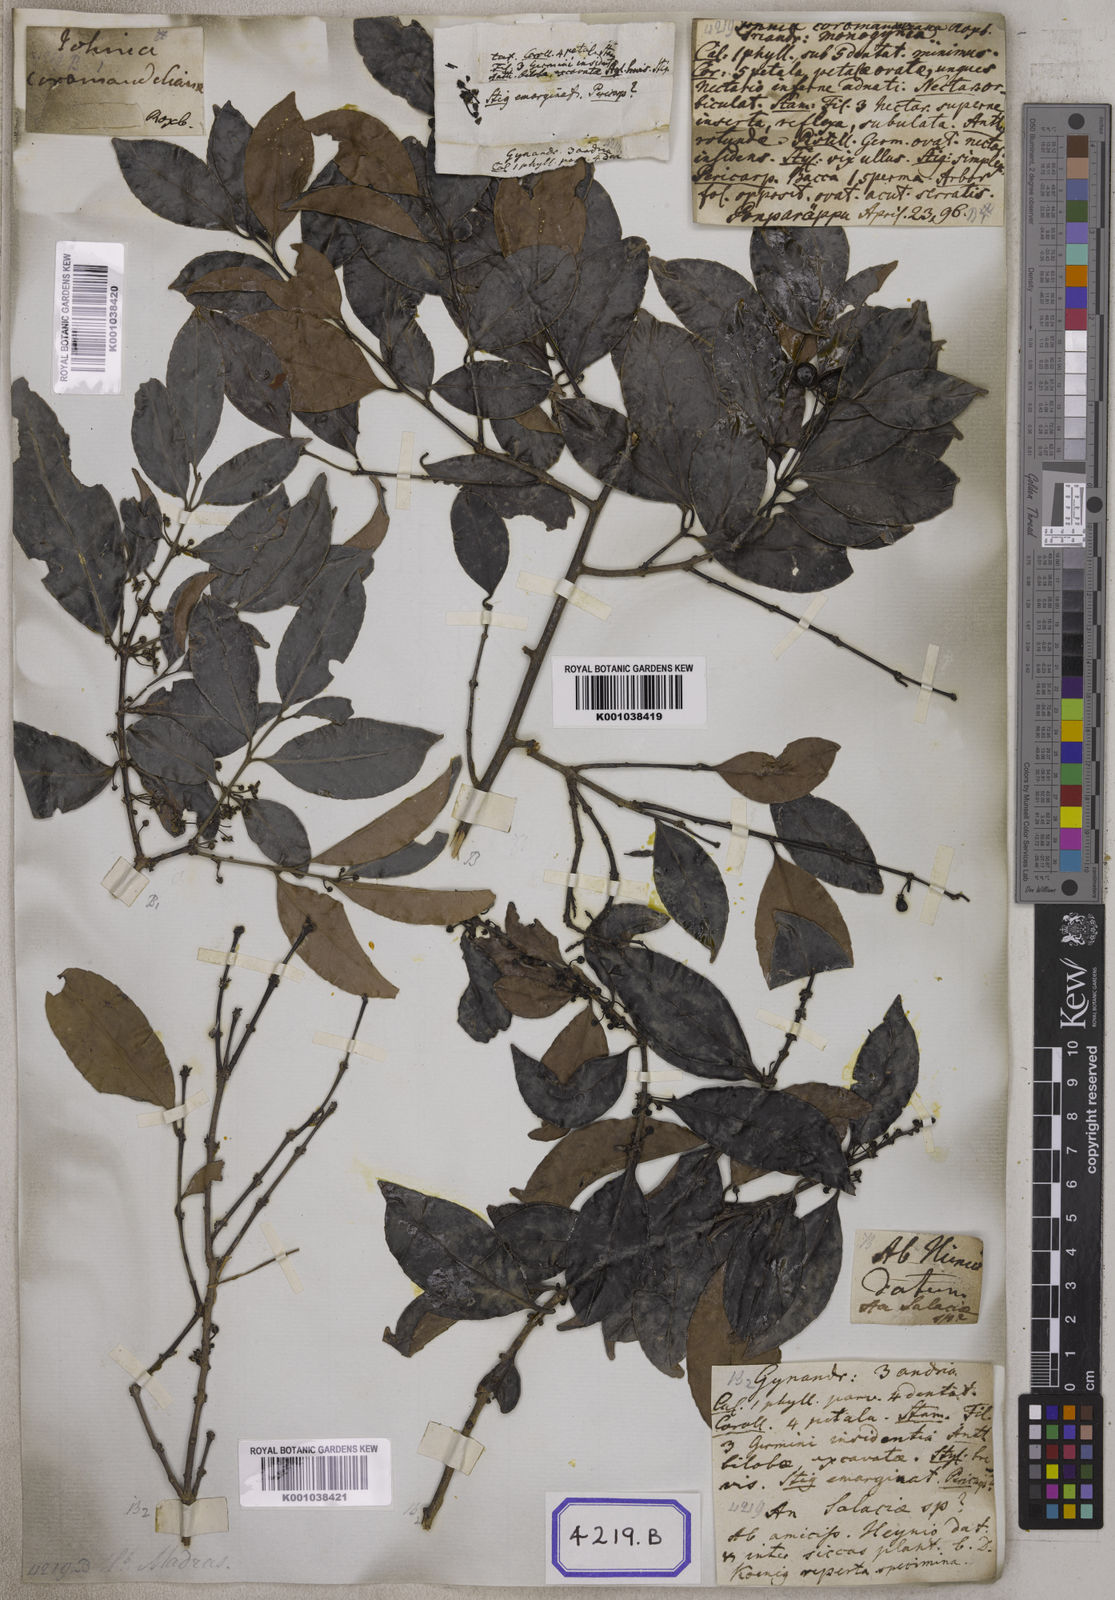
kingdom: Plantae
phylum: Tracheophyta
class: Magnoliopsida
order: Celastrales
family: Celastraceae
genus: Salacia
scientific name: Salacia chinensis
